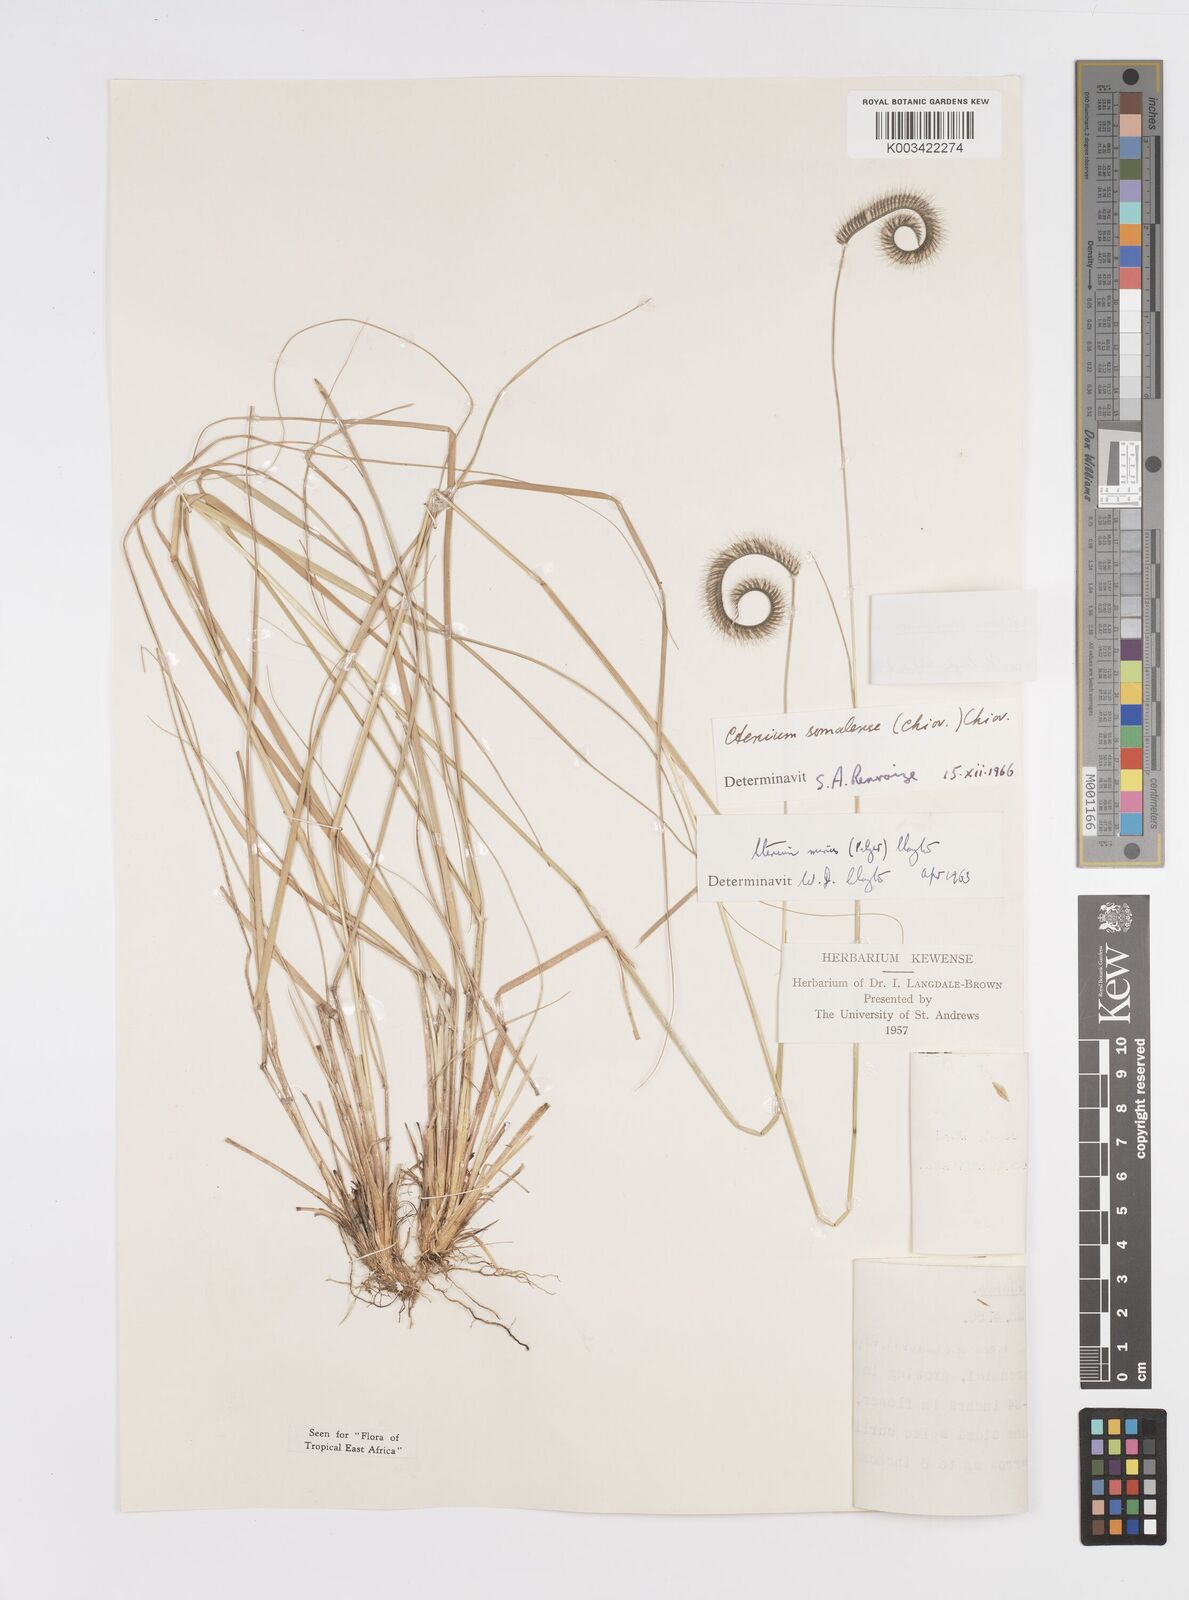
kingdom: Plantae
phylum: Tracheophyta
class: Liliopsida
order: Poales
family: Poaceae
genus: Ctenium
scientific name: Ctenium concinnum
